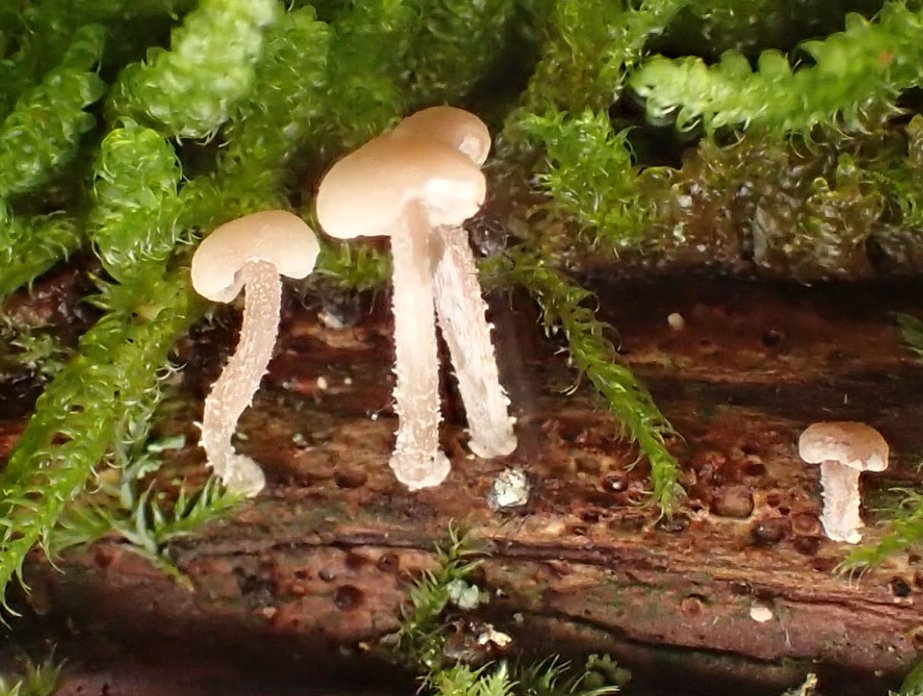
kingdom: Fungi
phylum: Basidiomycota
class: Agaricomycetes
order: Agaricales
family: Omphalotaceae
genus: Collybiopsis
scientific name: Collybiopsis ramealis
